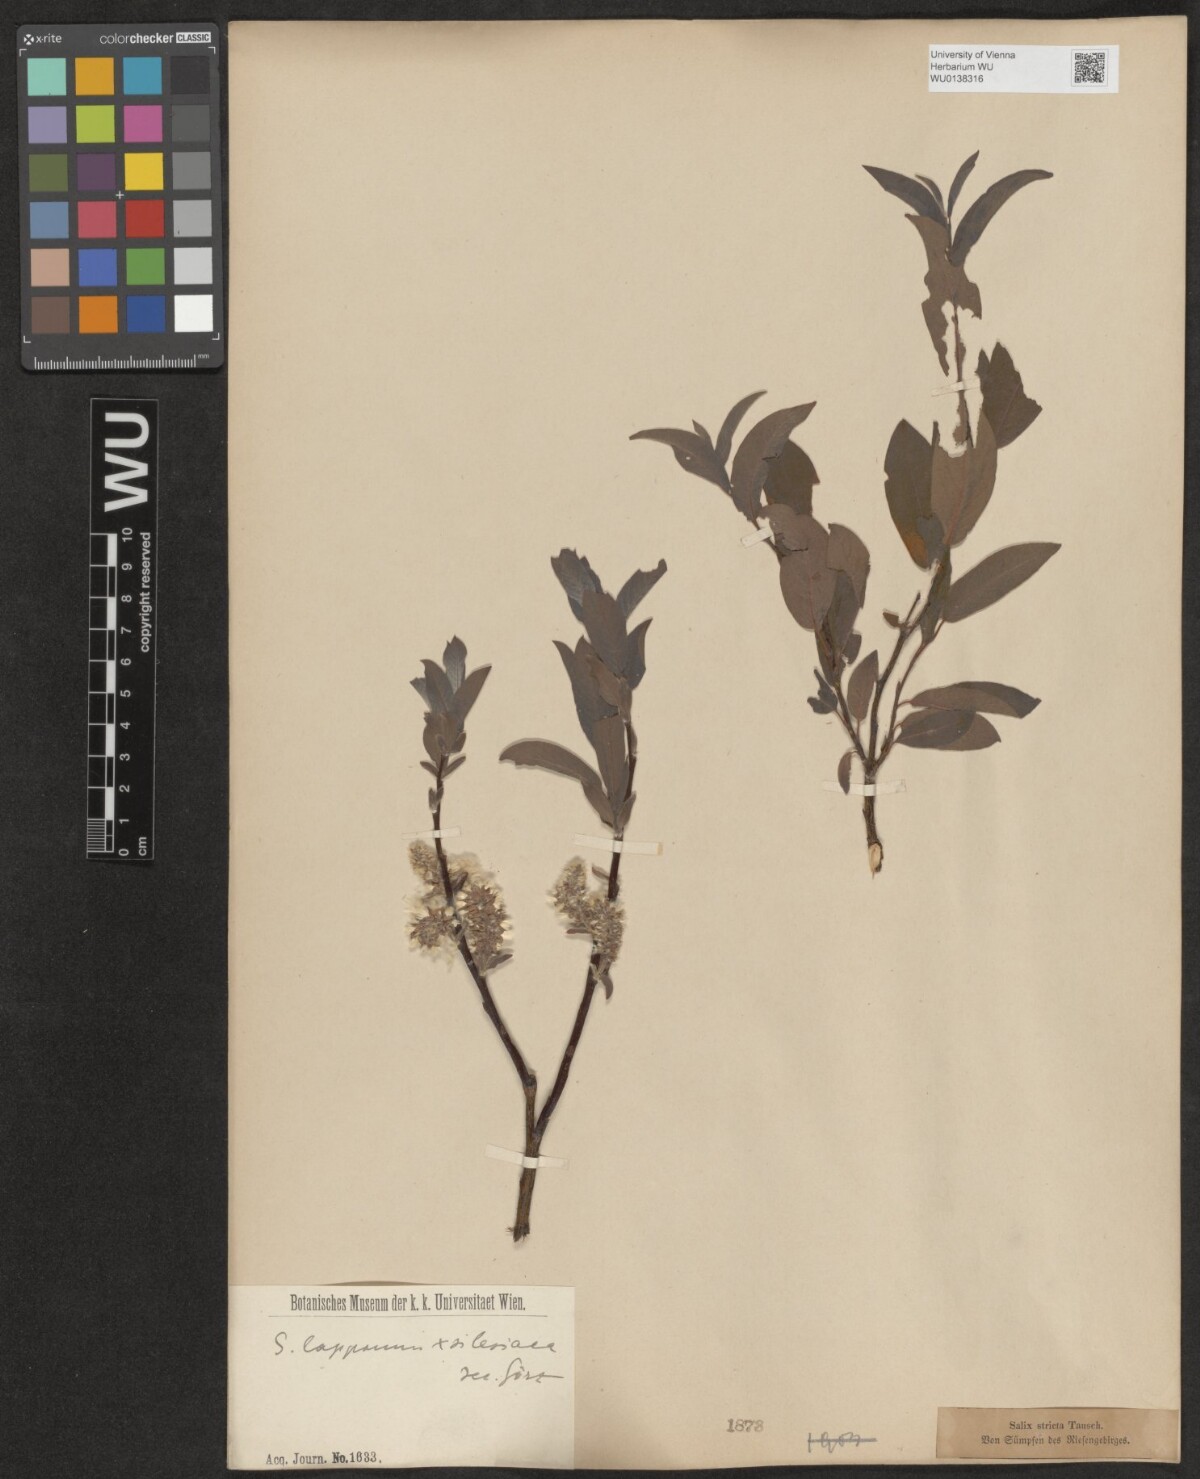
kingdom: Plantae
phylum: Tracheophyta
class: Magnoliopsida
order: Malpighiales
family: Salicaceae
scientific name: Salicaceae
